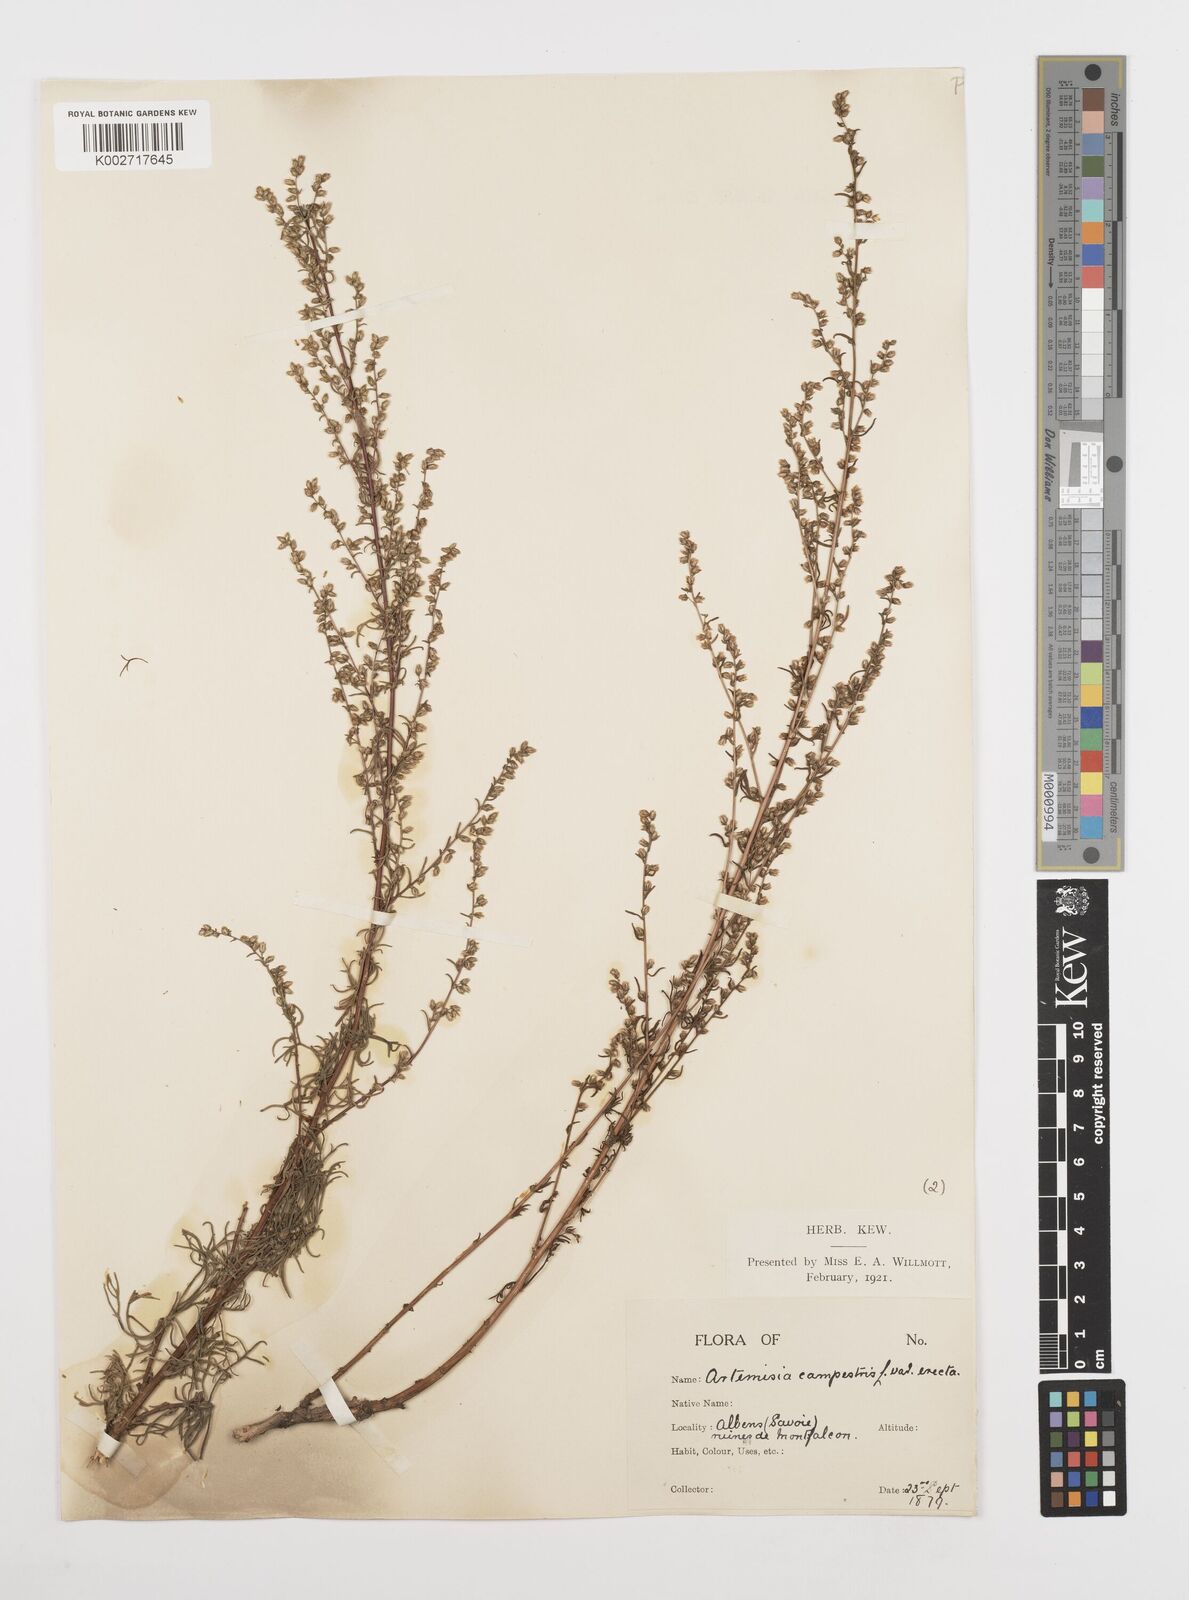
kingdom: Plantae
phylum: Tracheophyta
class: Magnoliopsida
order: Asterales
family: Asteraceae
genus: Artemisia
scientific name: Artemisia campestris
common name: Field wormwood
